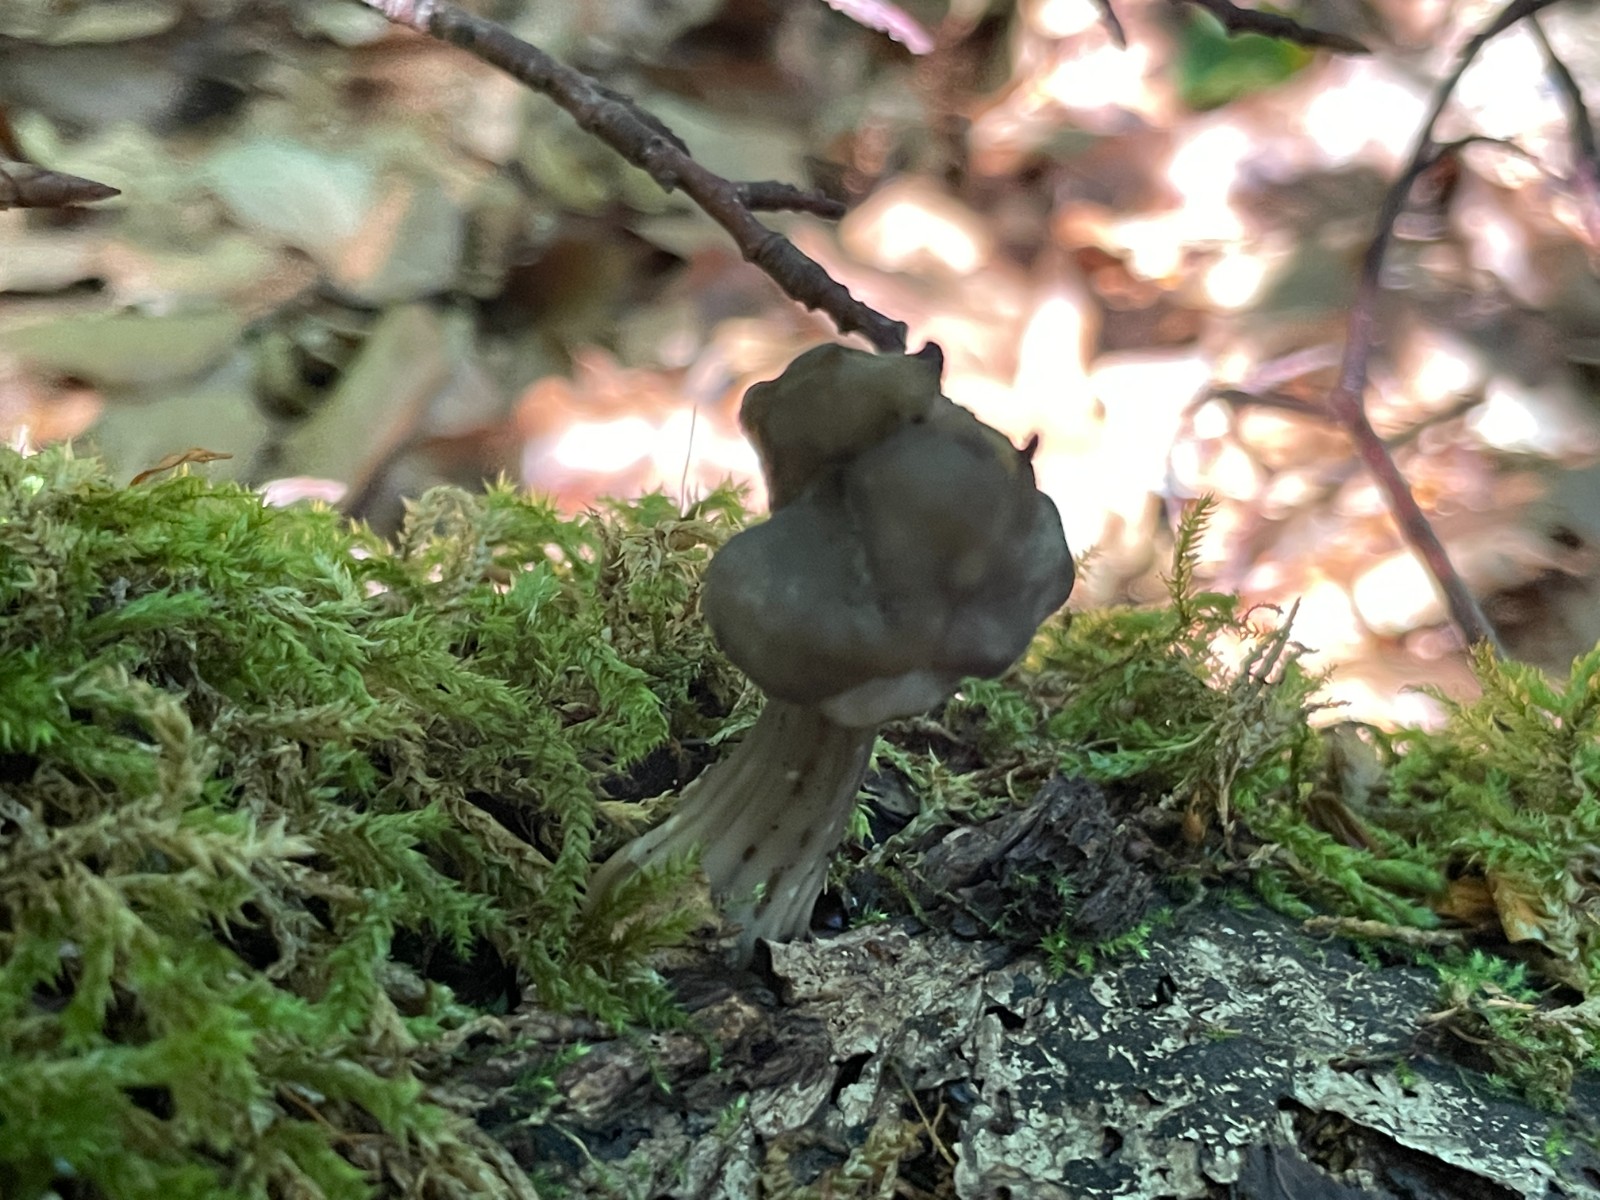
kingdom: Fungi
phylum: Ascomycota
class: Pezizomycetes
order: Pezizales
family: Helvellaceae
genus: Helvella
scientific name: Helvella lacunosa
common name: grubet foldhat
